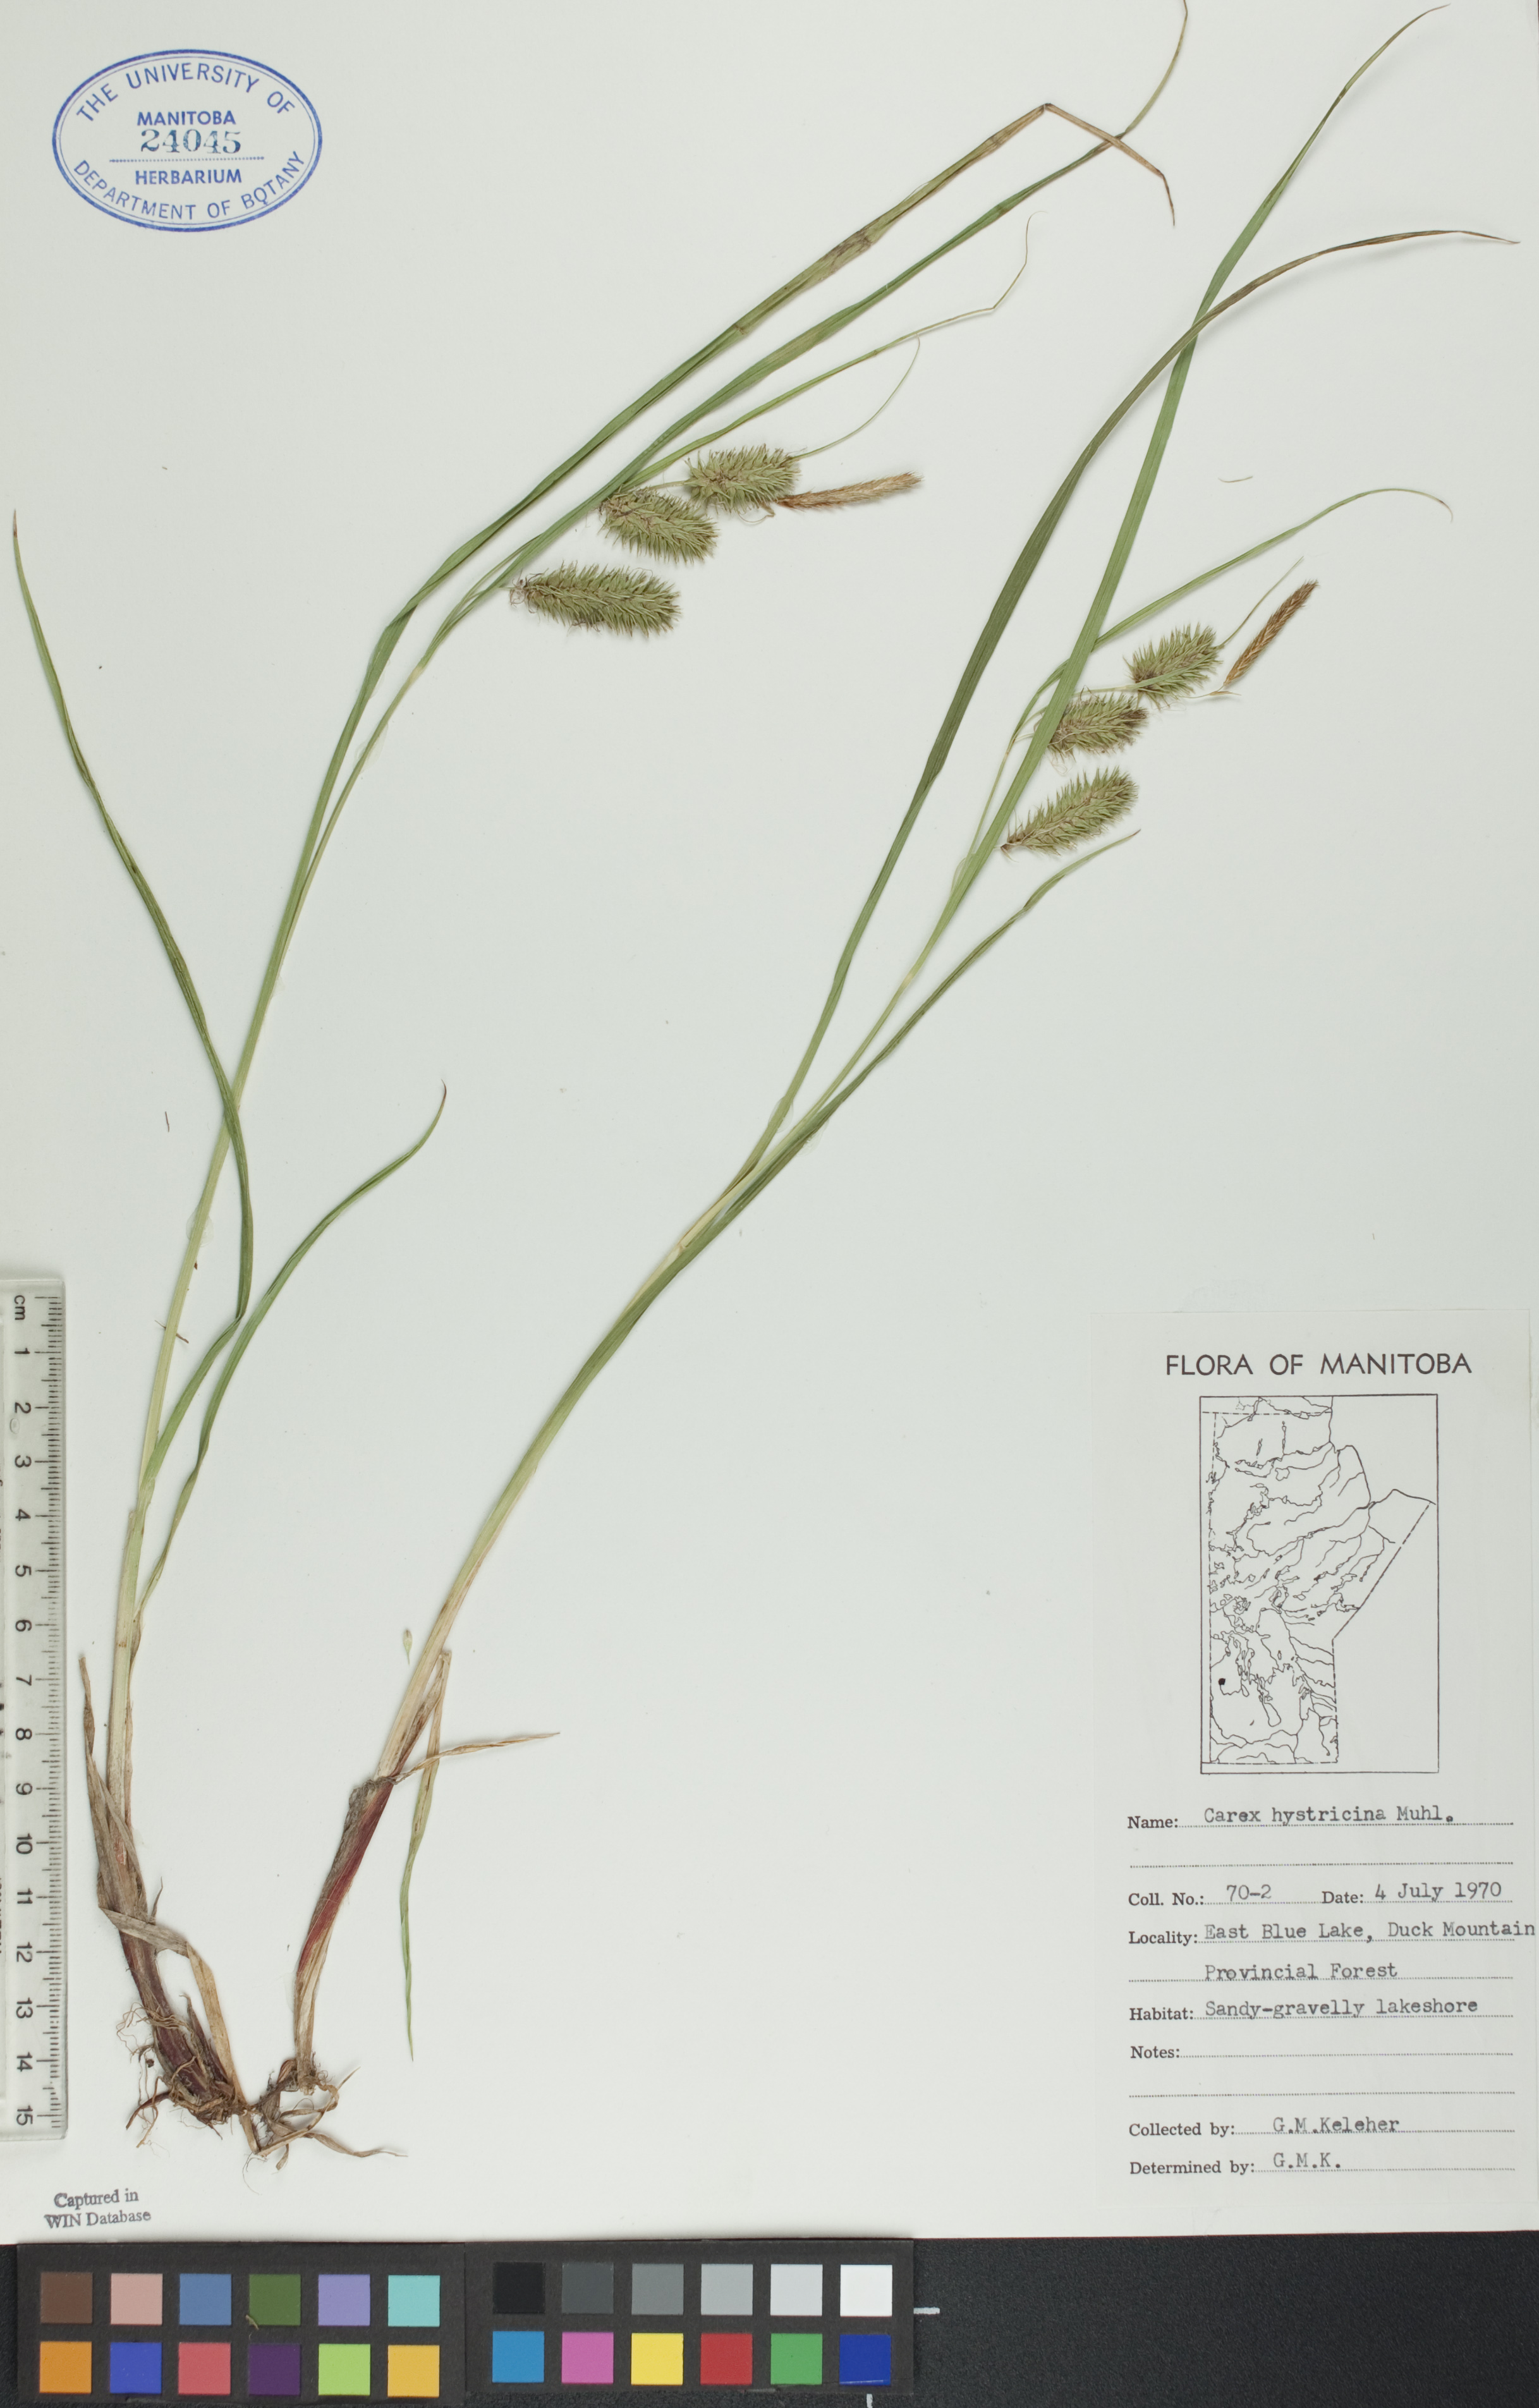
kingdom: Plantae
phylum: Tracheophyta
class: Liliopsida
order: Poales
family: Cyperaceae
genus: Carex
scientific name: Carex hystericina
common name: Bottlebrush sedge
